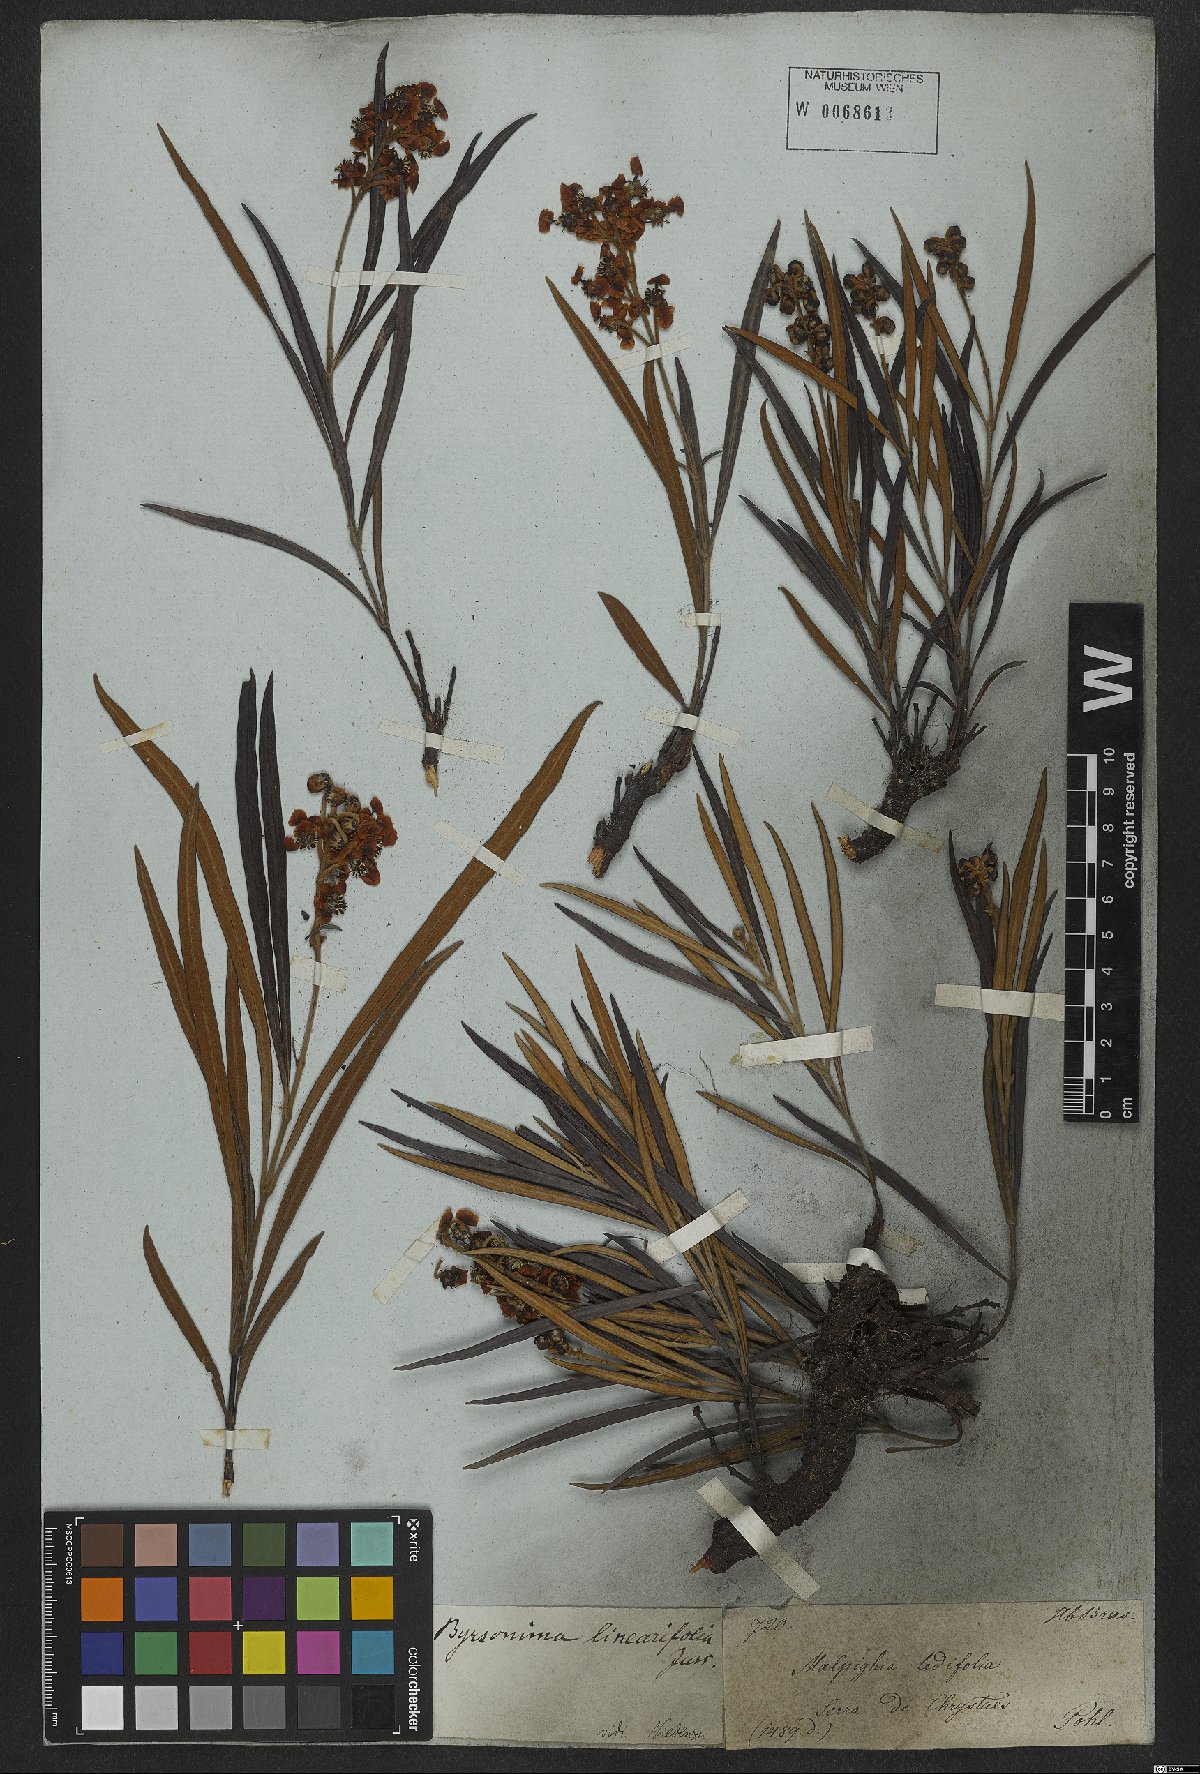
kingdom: Plantae
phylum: Tracheophyta
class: Magnoliopsida
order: Malpighiales
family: Malpighiaceae
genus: Byrsonima
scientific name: Byrsonima linearifolia
